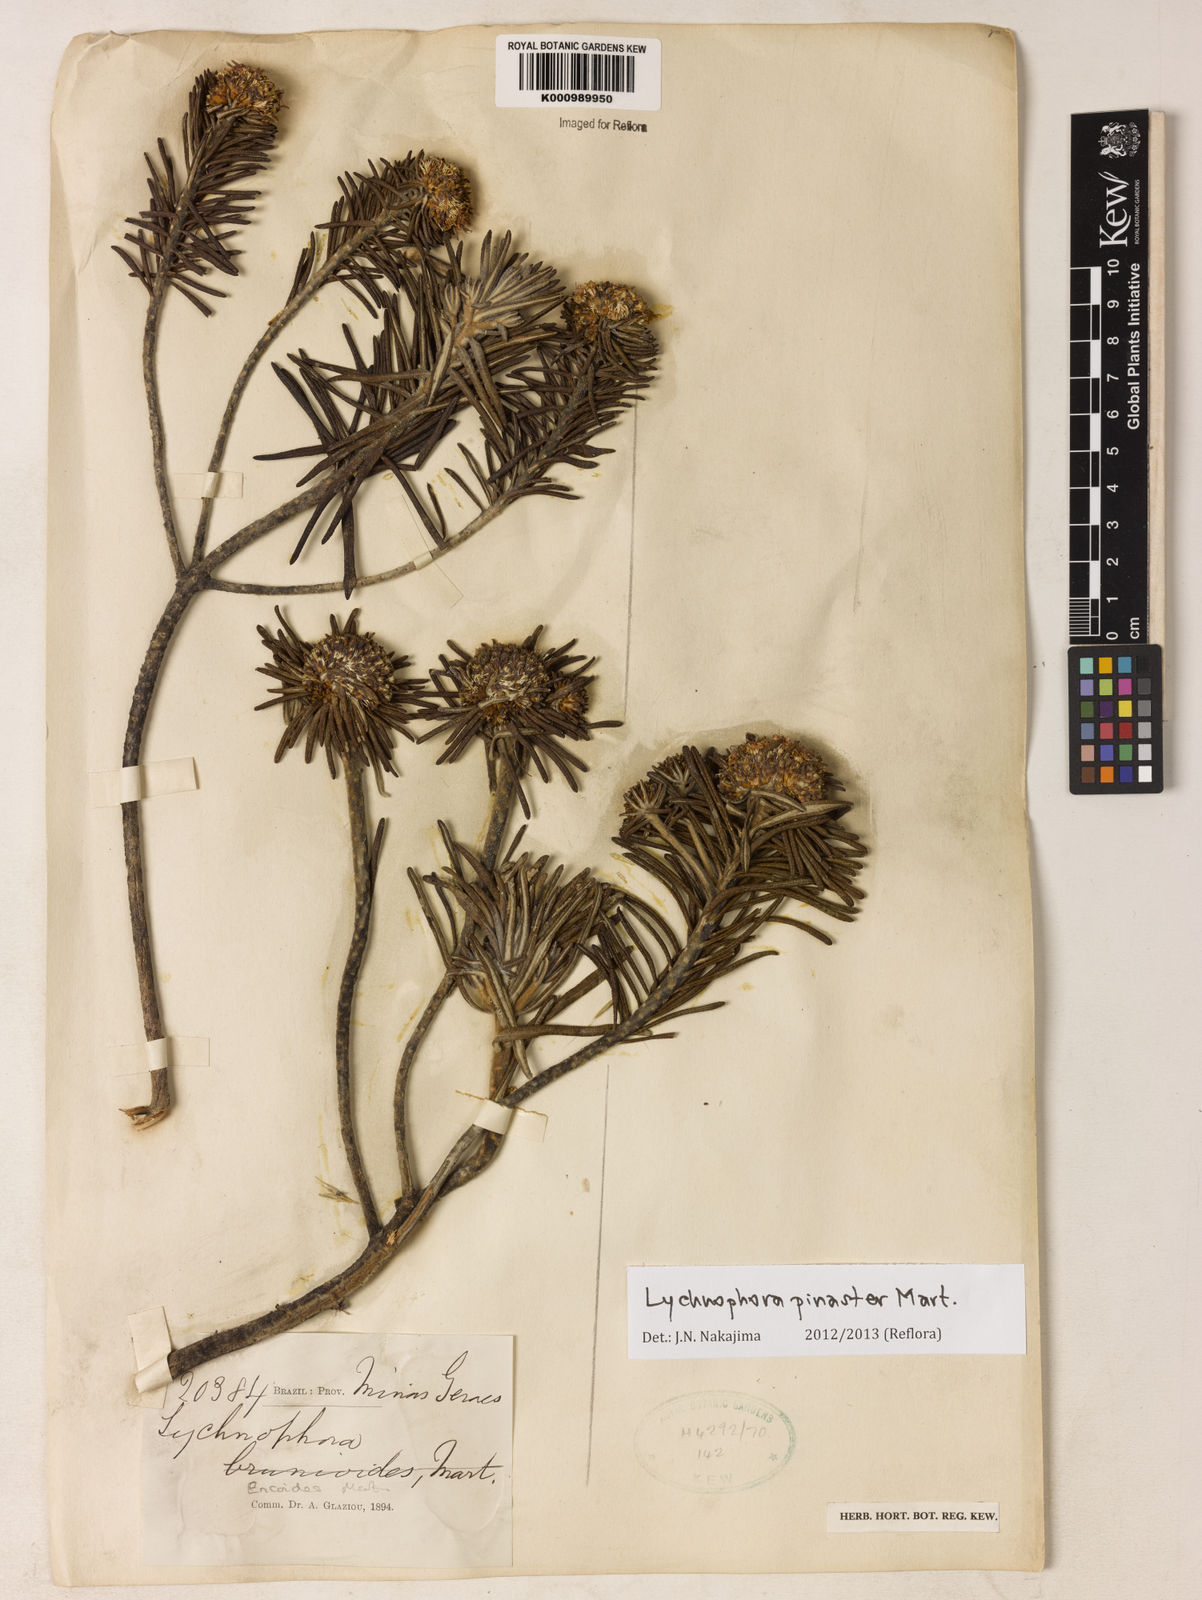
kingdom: Plantae
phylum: Tracheophyta
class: Magnoliopsida
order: Asterales
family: Asteraceae
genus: Lychnophora
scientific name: Lychnophora pinaster
